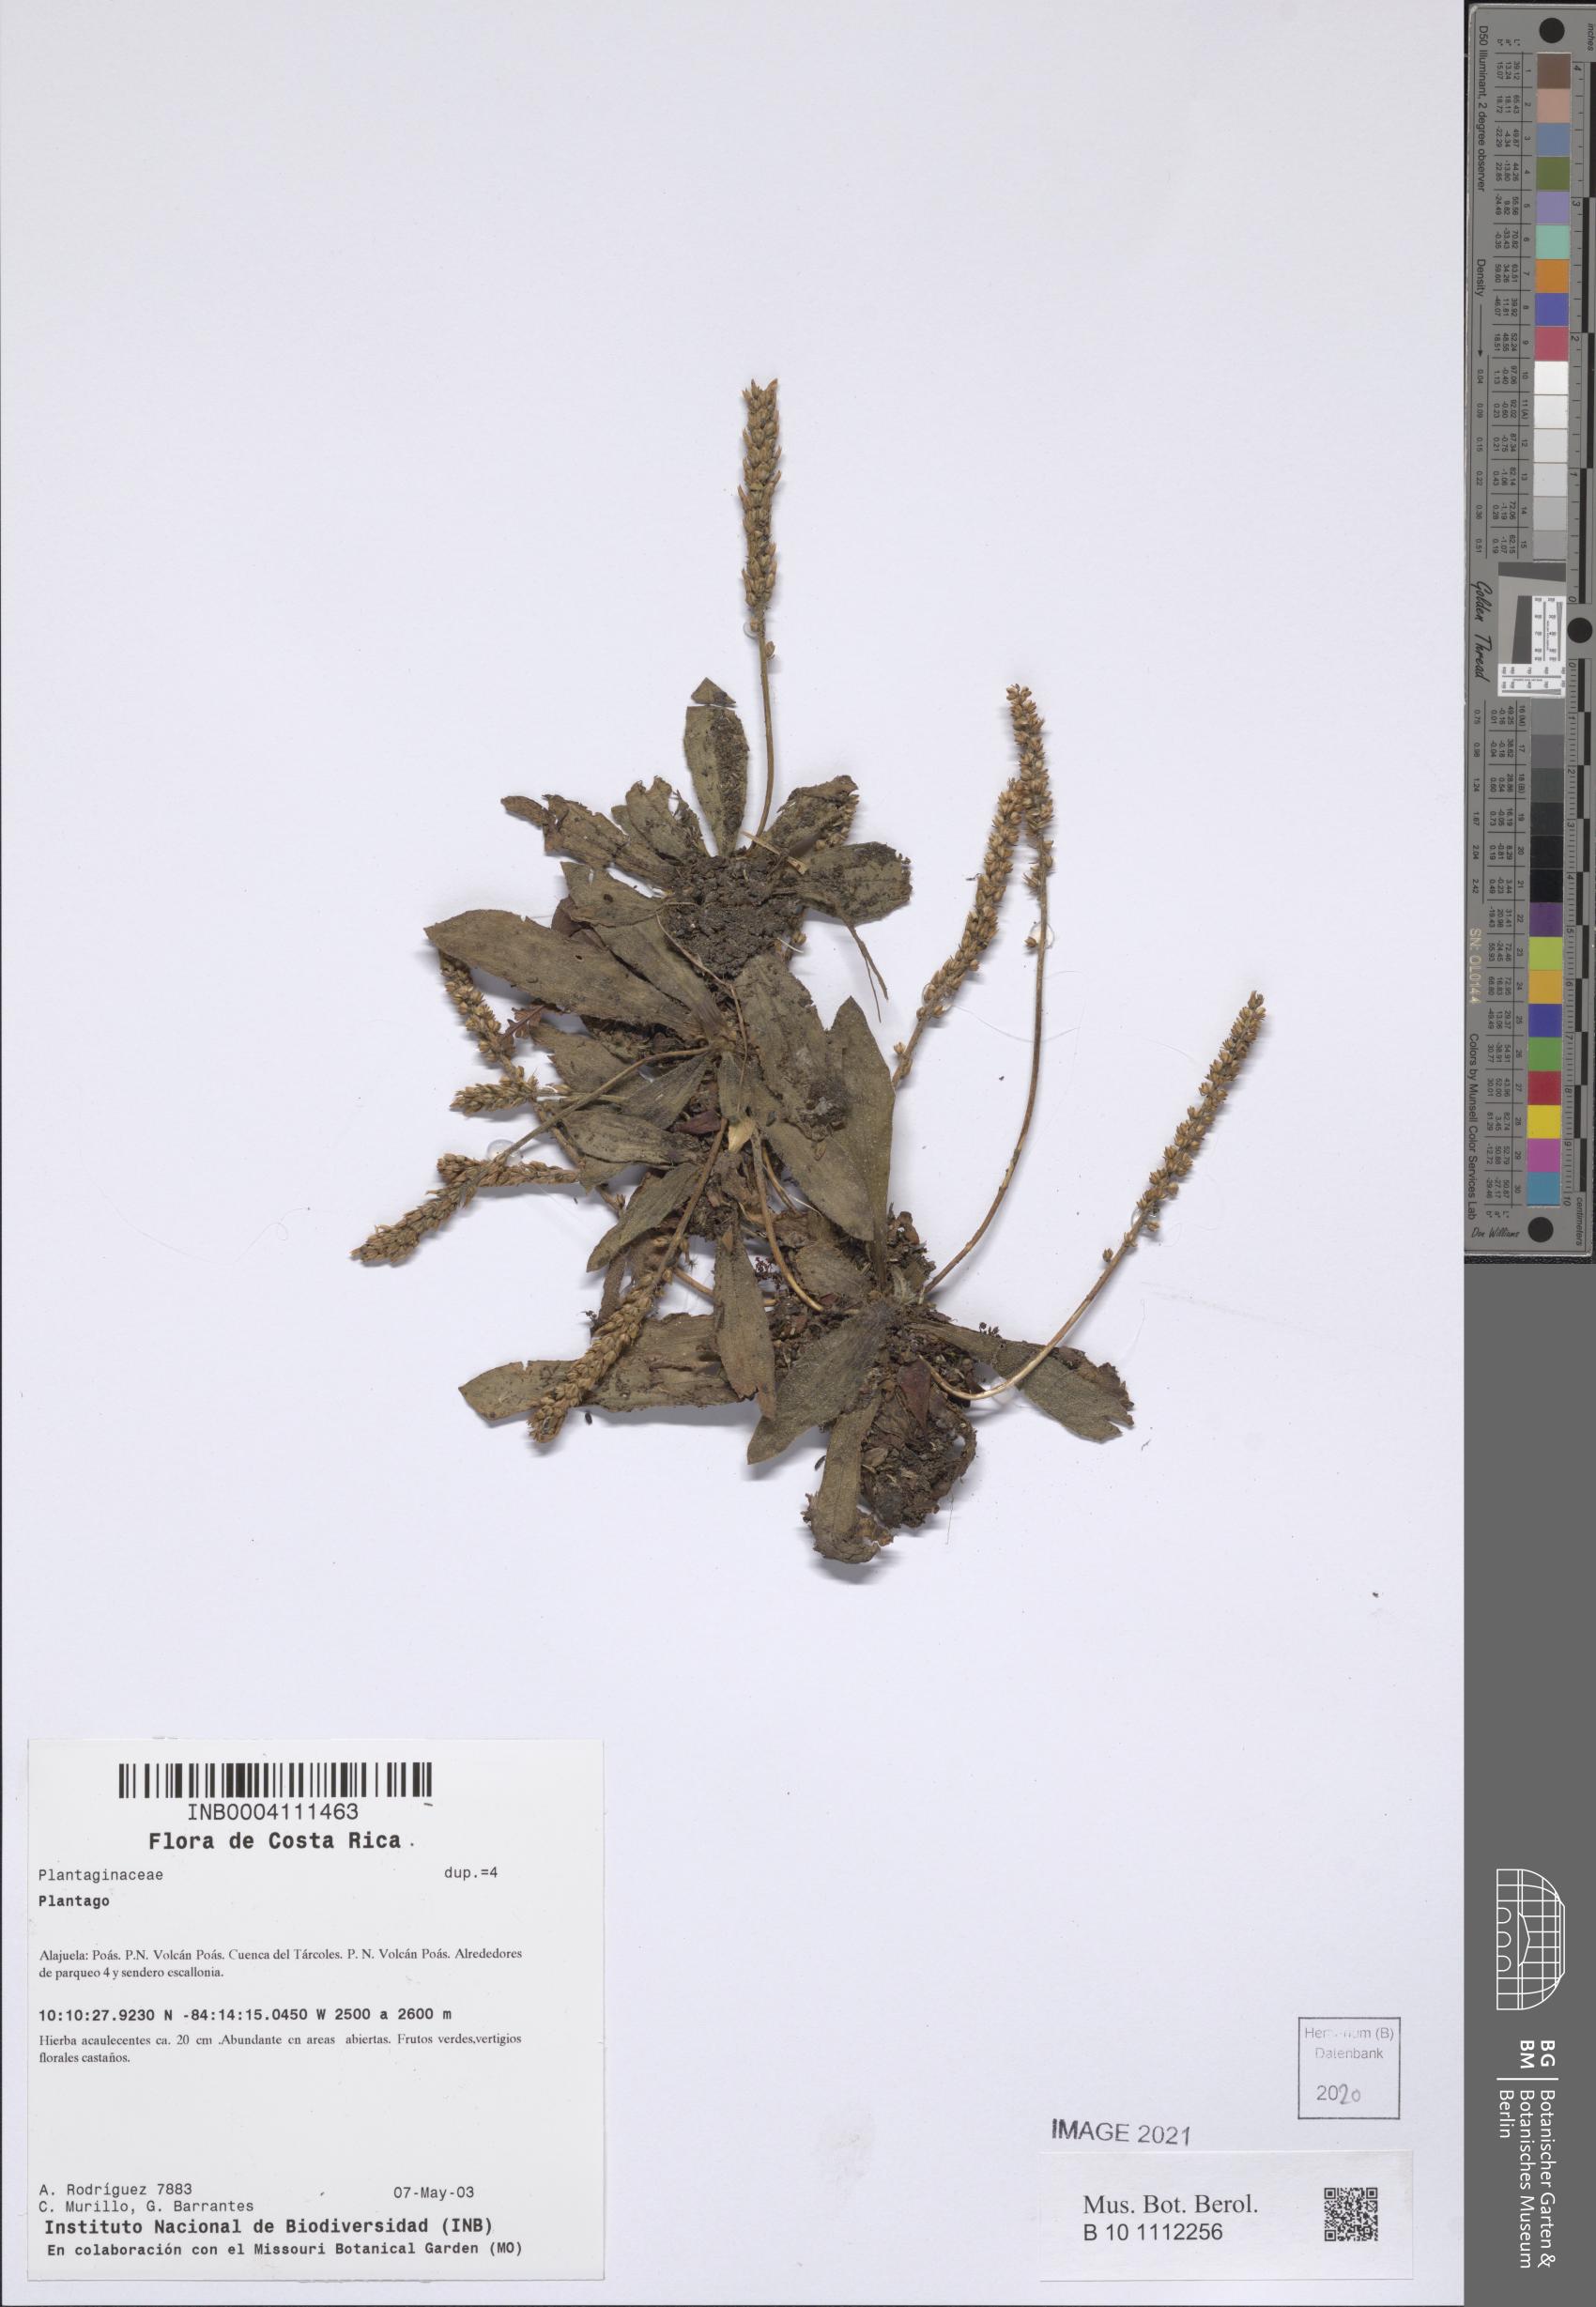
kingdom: Plantae
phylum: Tracheophyta
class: Magnoliopsida
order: Lamiales
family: Plantaginaceae
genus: Plantago
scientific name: Plantago
